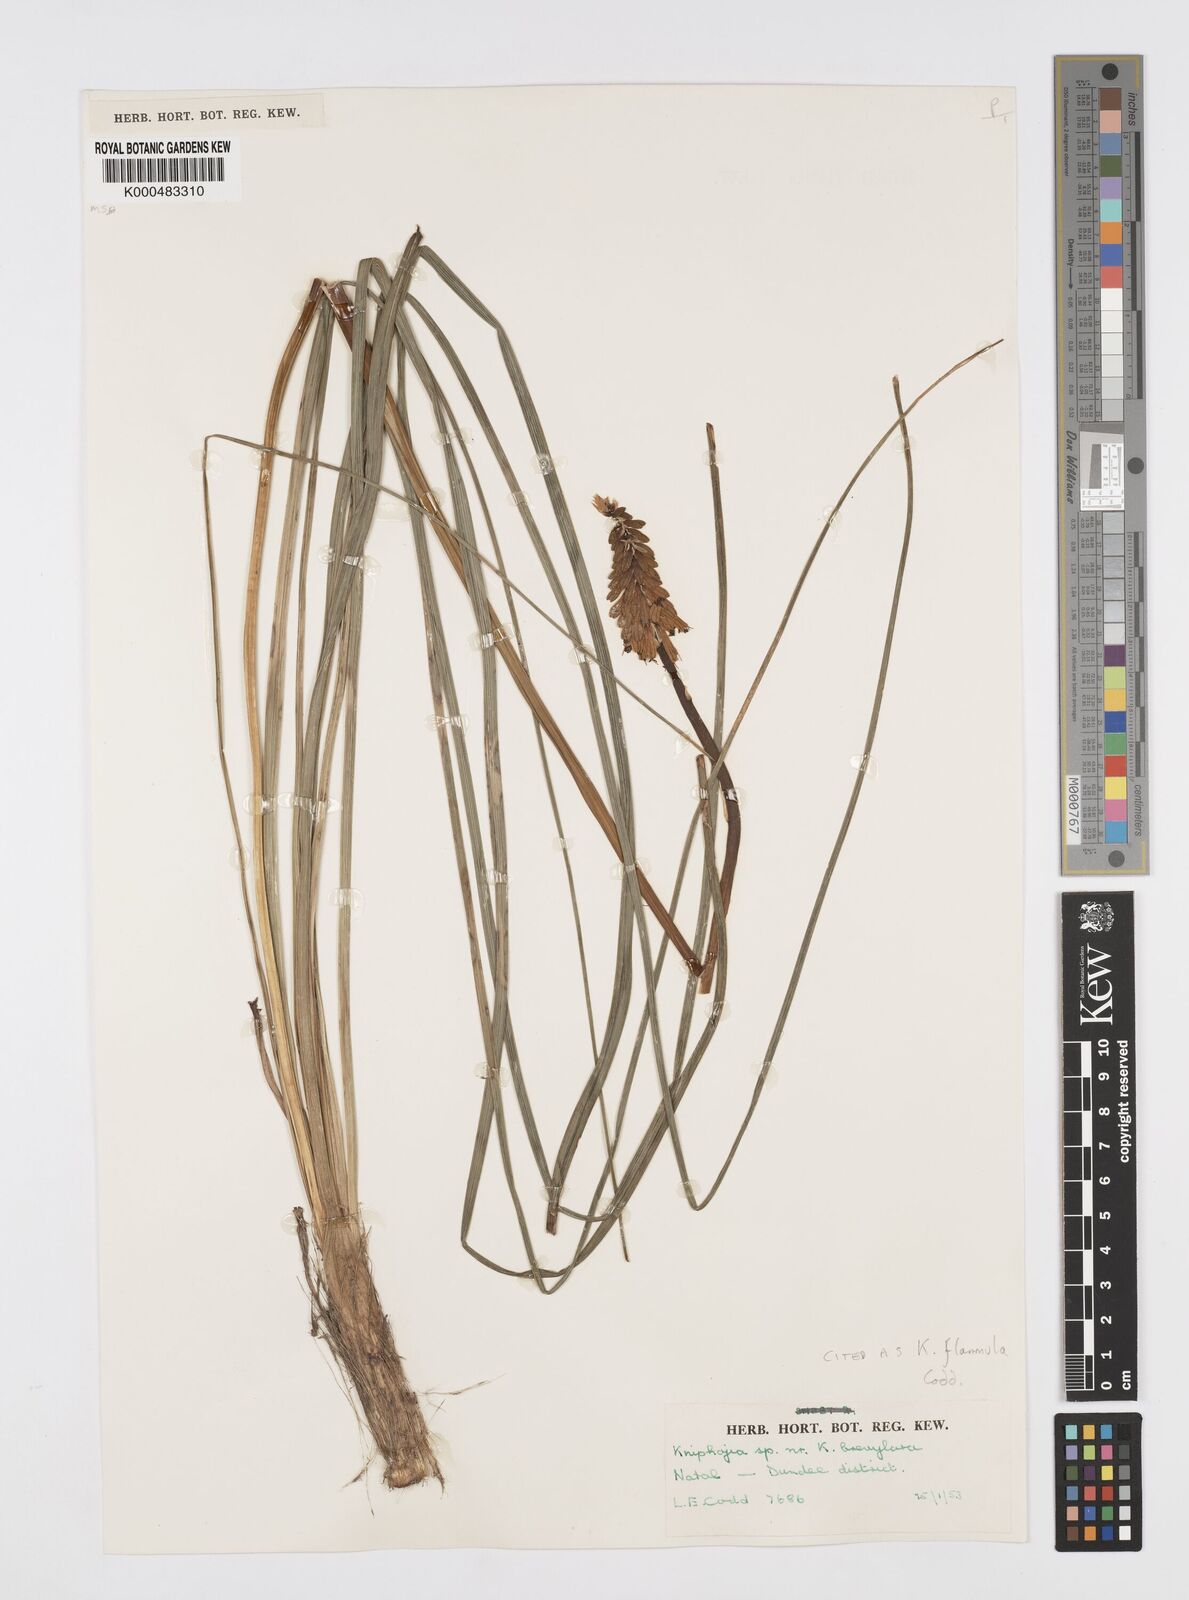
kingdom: Plantae
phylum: Tracheophyta
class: Liliopsida
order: Asparagales
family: Asphodelaceae
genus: Kniphofia
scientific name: Kniphofia flammula
